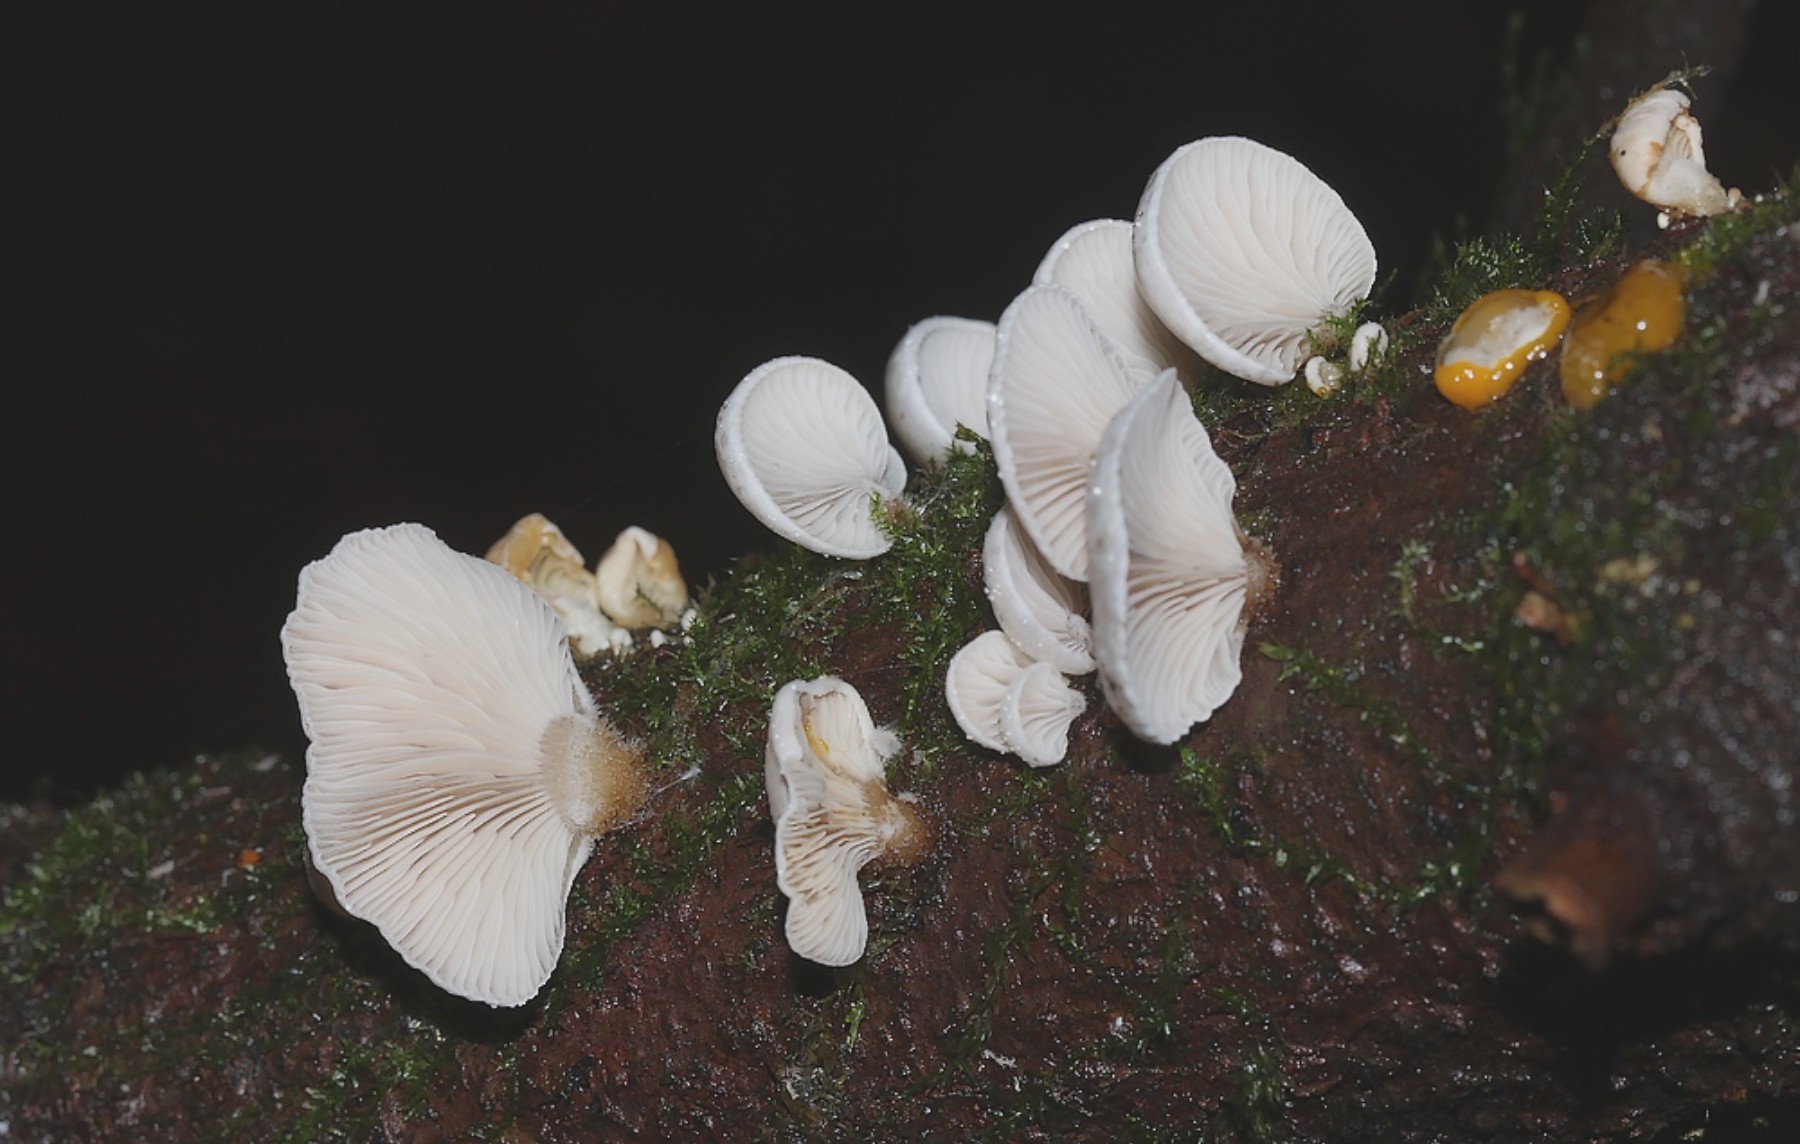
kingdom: Fungi
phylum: Basidiomycota
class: Agaricomycetes
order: Agaricales
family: Mycenaceae
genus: Panellus
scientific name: Panellus mitis
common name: mild epaulethat
